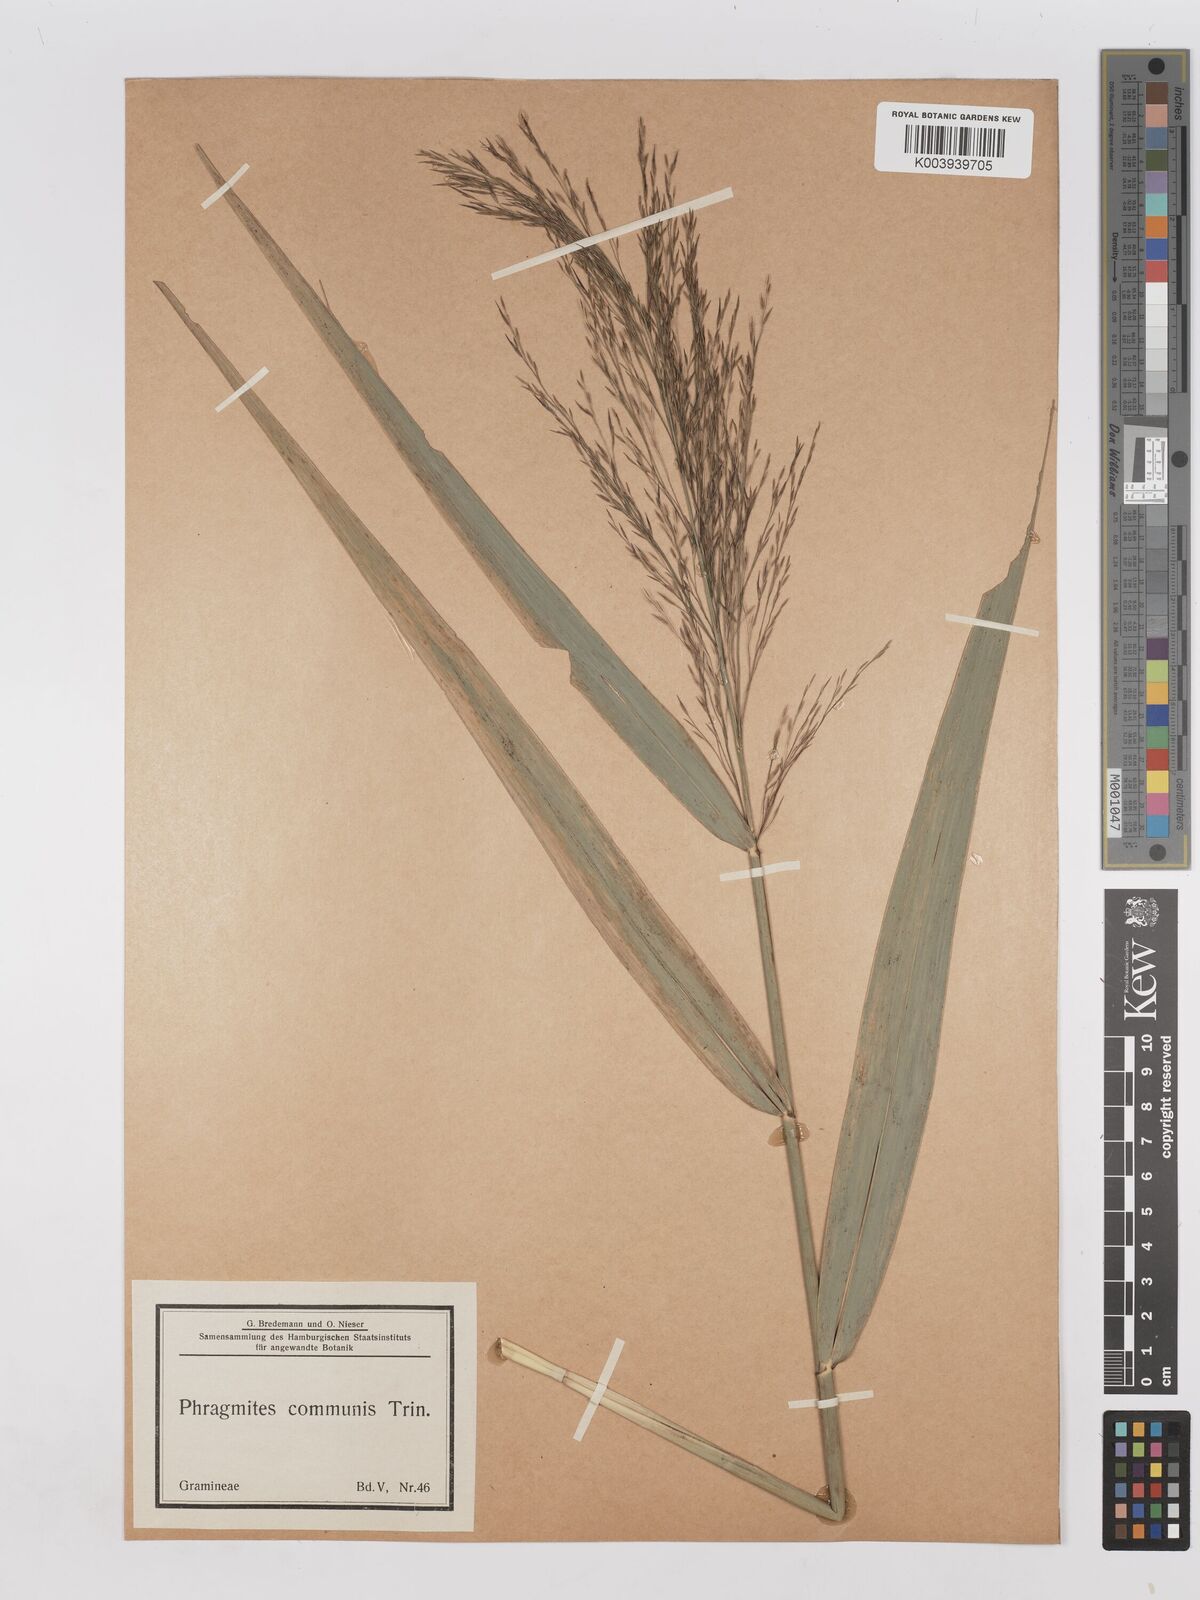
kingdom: Plantae
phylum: Tracheophyta
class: Liliopsida
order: Poales
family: Poaceae
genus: Phragmites
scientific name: Phragmites australis
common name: Common reed
